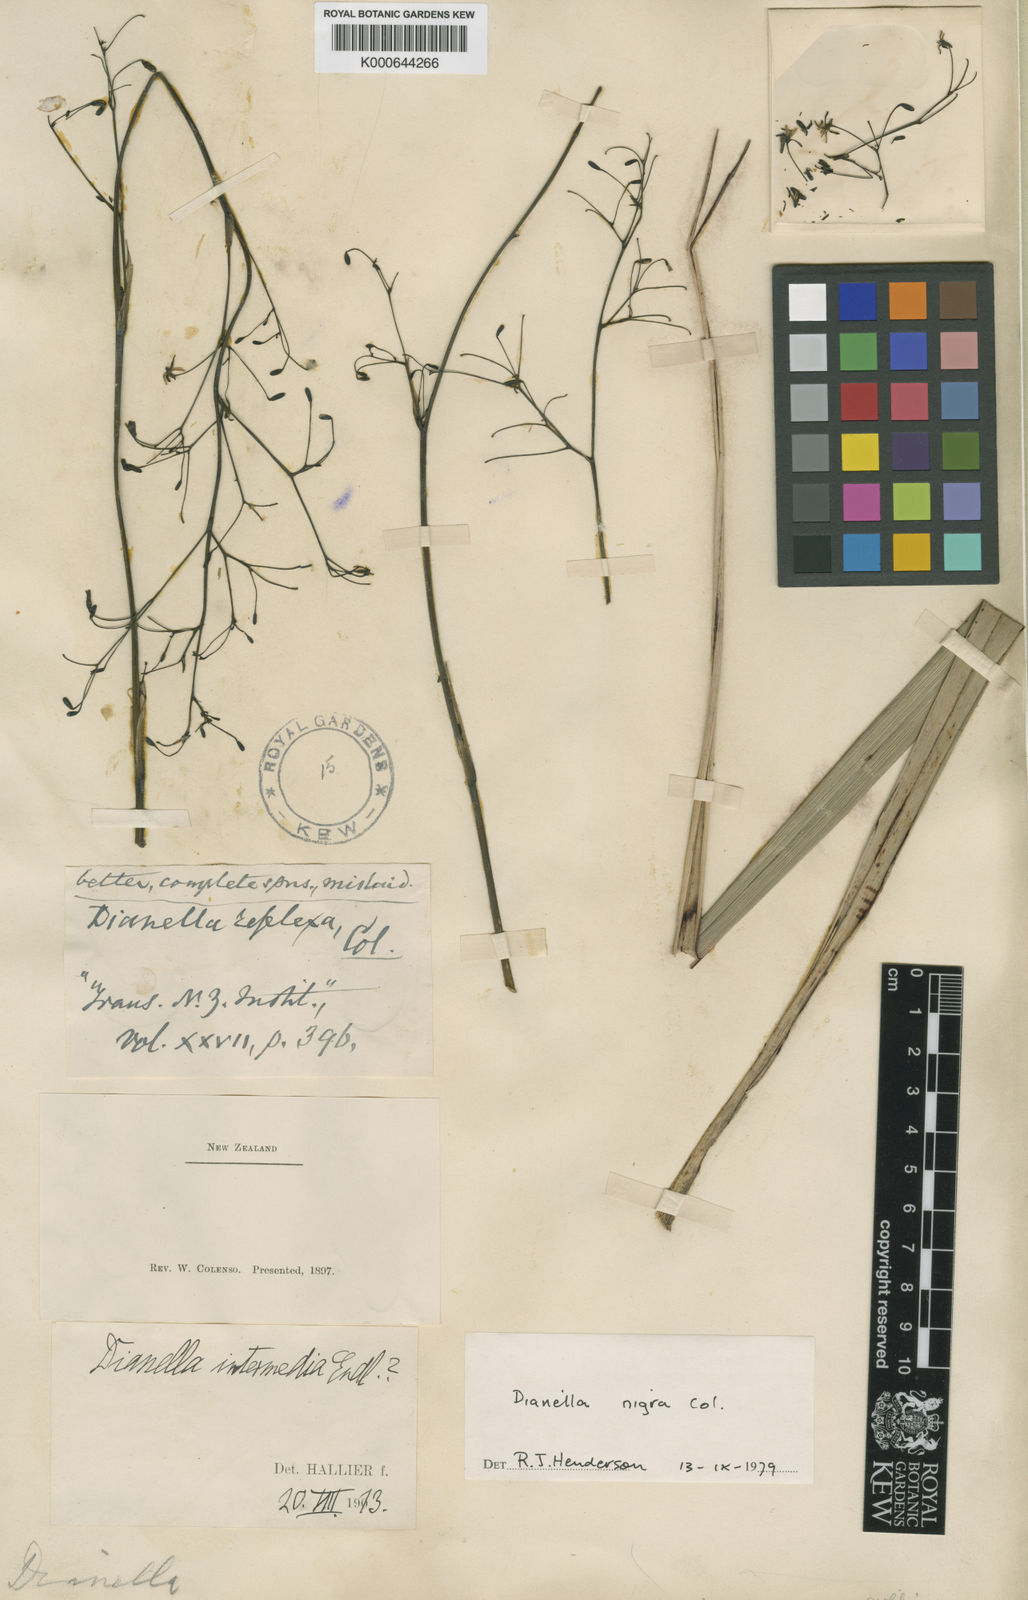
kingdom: Plantae
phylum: Tracheophyta
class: Liliopsida
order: Asparagales
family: Asphodelaceae
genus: Dianella
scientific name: Dianella nigra
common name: New zealand-blueberry
